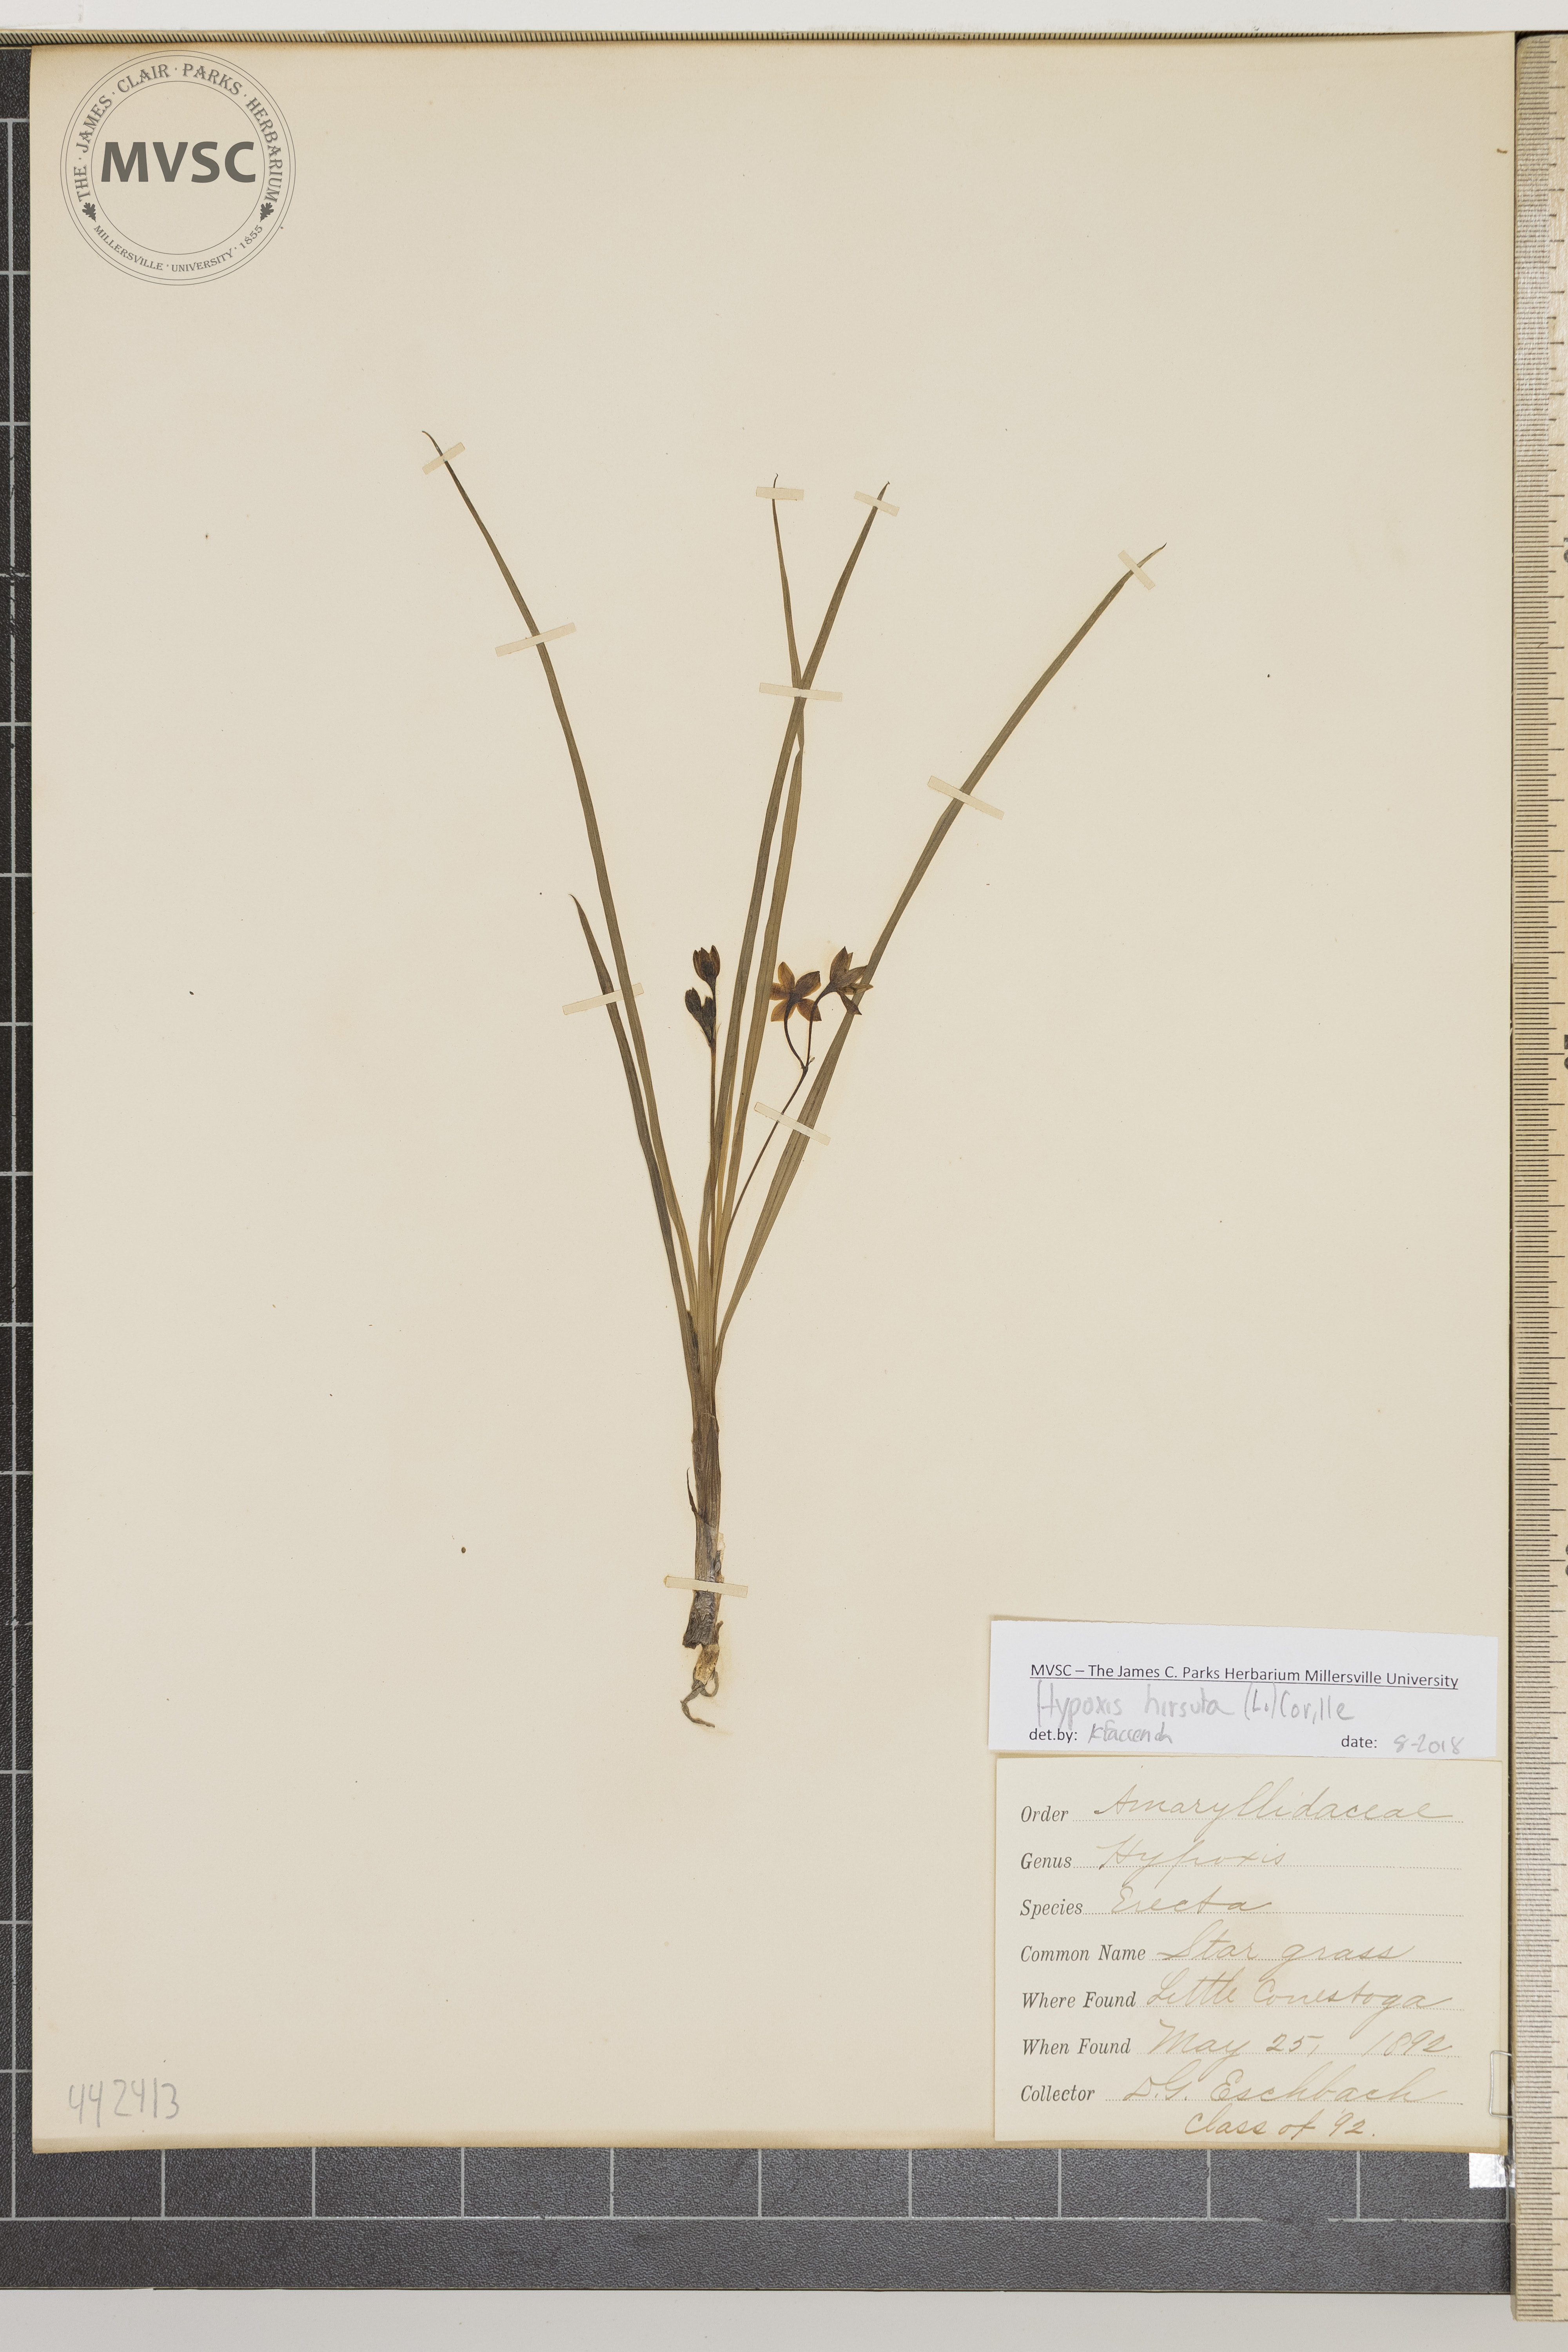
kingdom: Plantae
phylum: Tracheophyta
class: Liliopsida
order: Asparagales
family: Hypoxidaceae
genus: Hypoxis
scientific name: Hypoxis hirsuta
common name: Star grass
